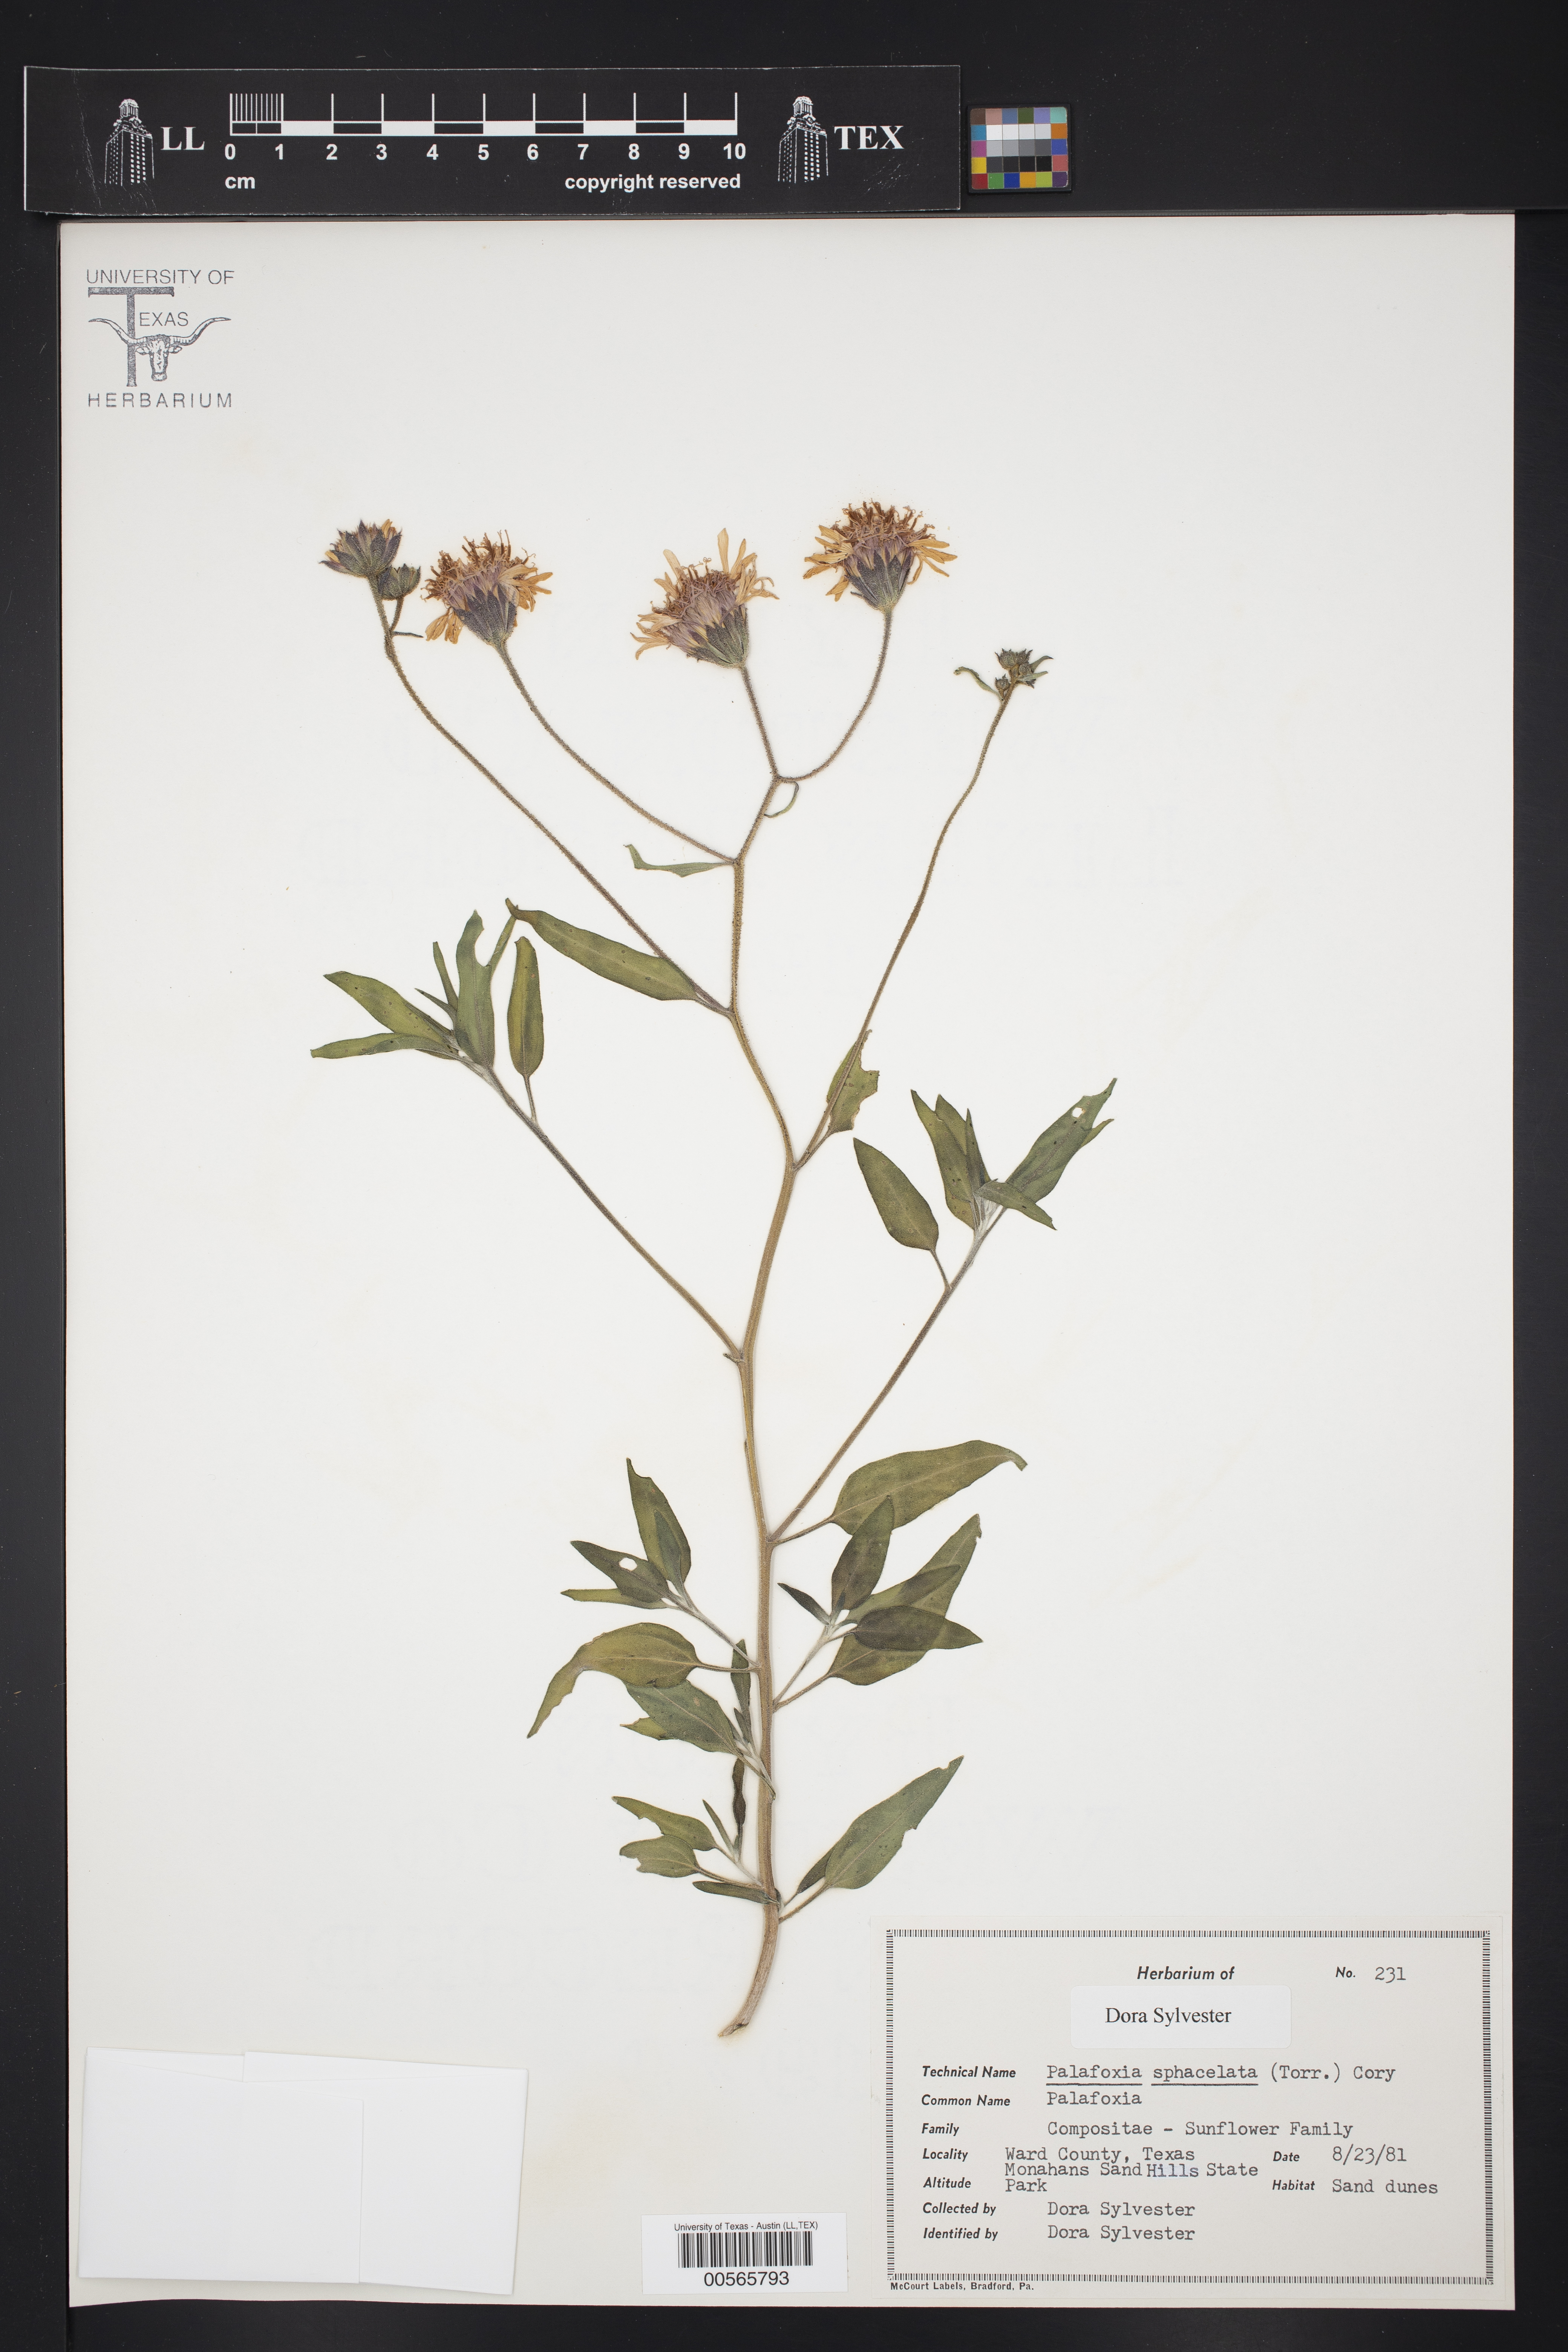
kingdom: Plantae
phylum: Tracheophyta
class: Magnoliopsida
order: Asterales
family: Asteraceae
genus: Palafoxia
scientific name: Palafoxia sphacelata
